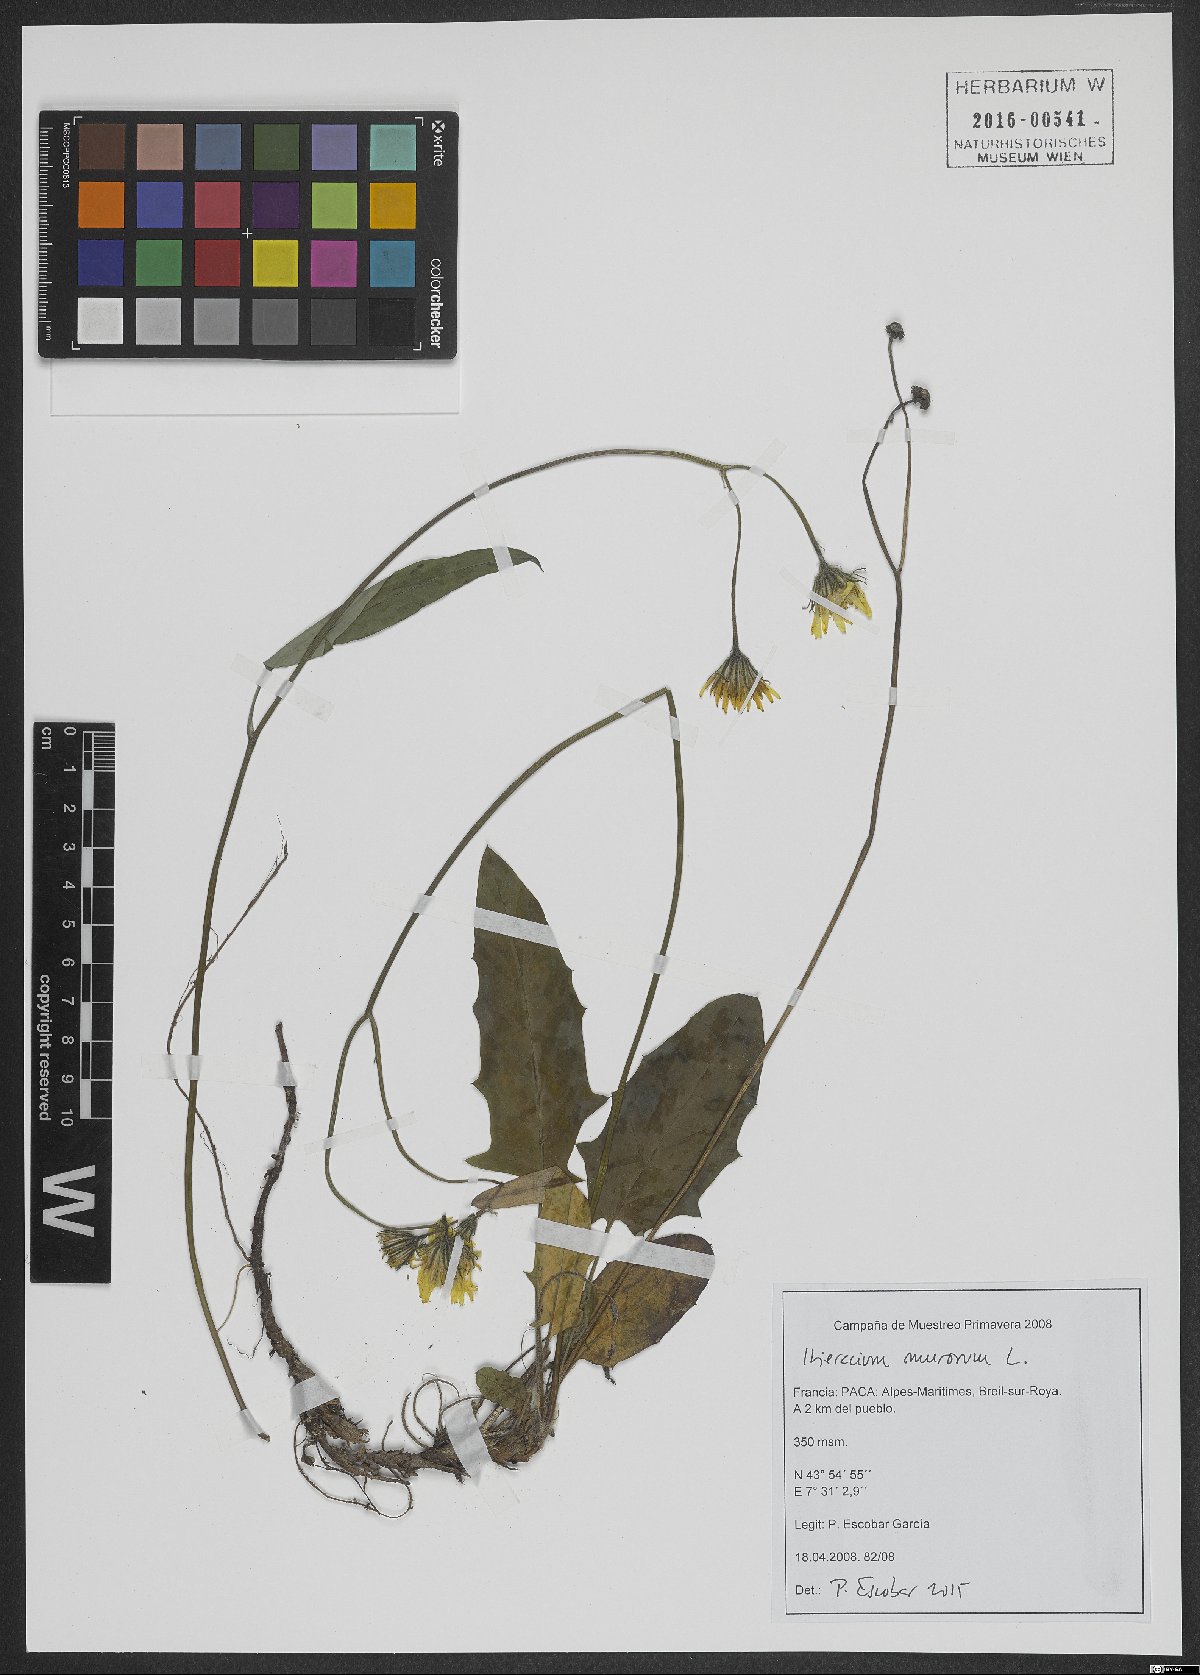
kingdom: Plantae
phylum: Tracheophyta
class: Magnoliopsida
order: Asterales
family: Asteraceae
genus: Hieracium
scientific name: Hieracium murorum
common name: Wall hawkweed
